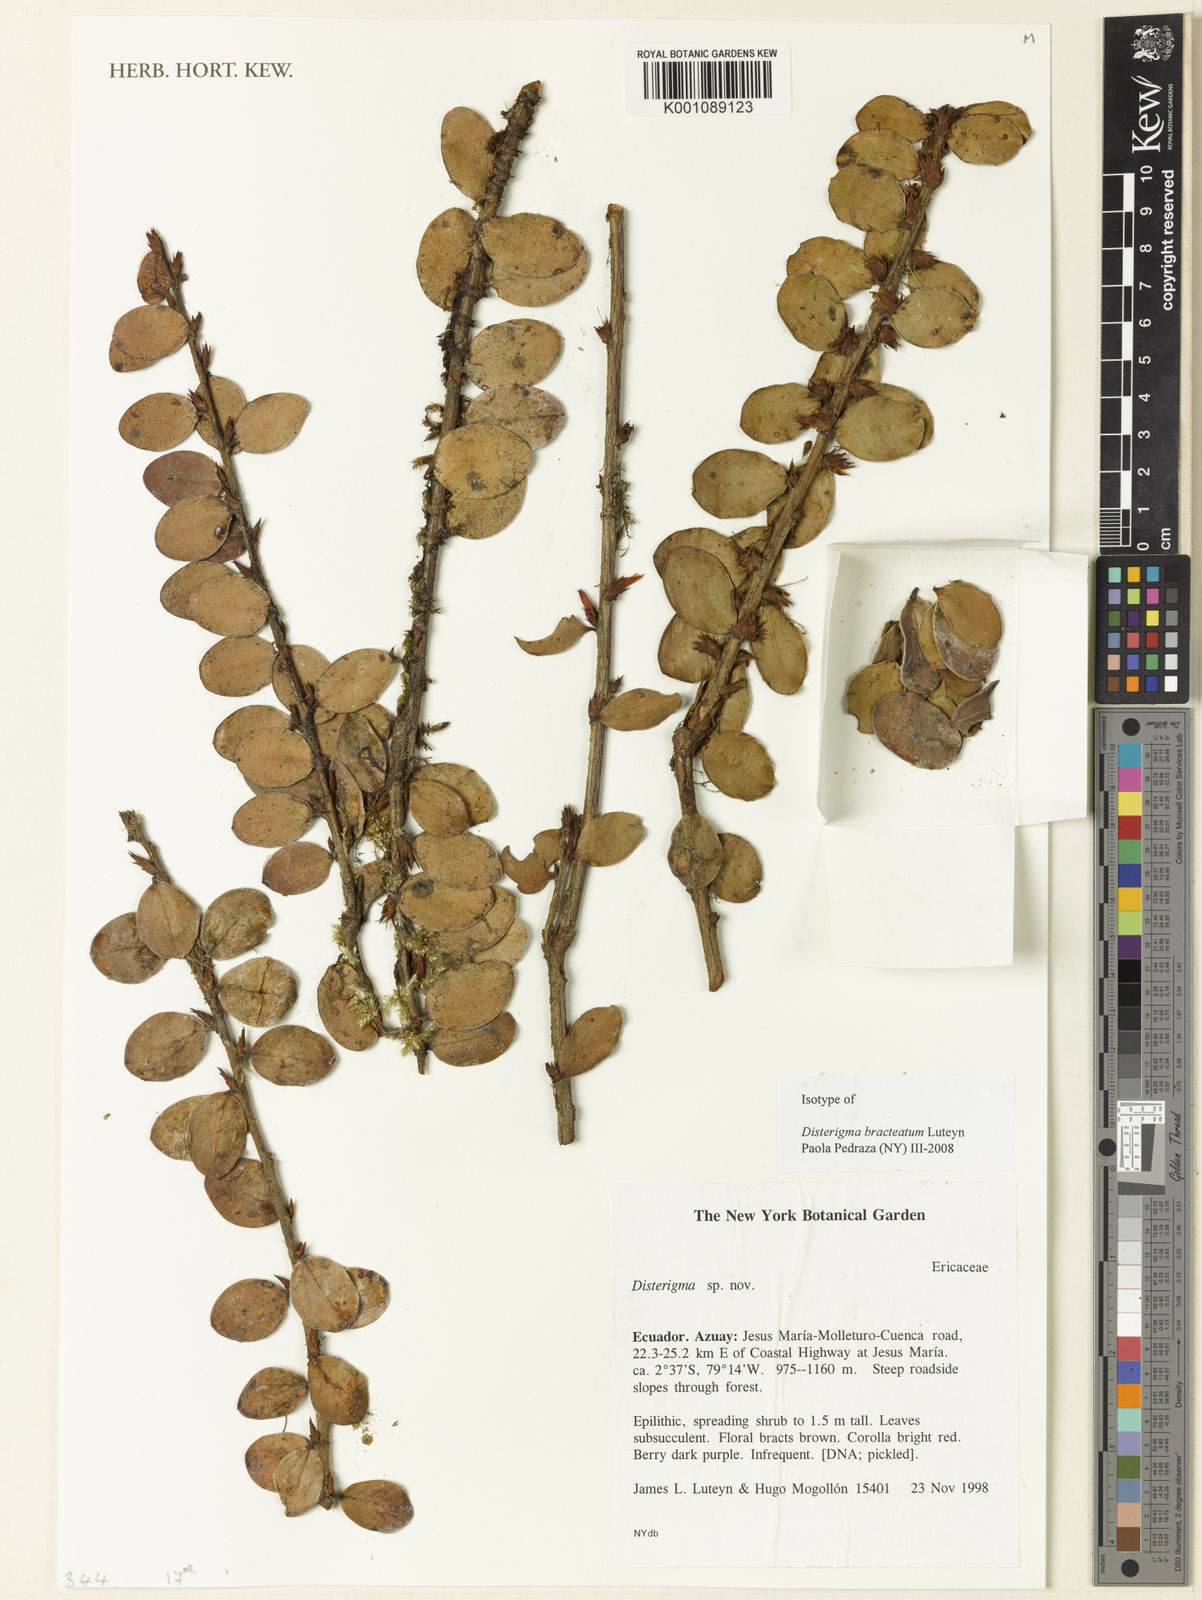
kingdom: Plantae
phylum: Tracheophyta
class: Magnoliopsida
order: Ericales
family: Ericaceae
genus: Disterigma
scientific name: Disterigma bracteatum
